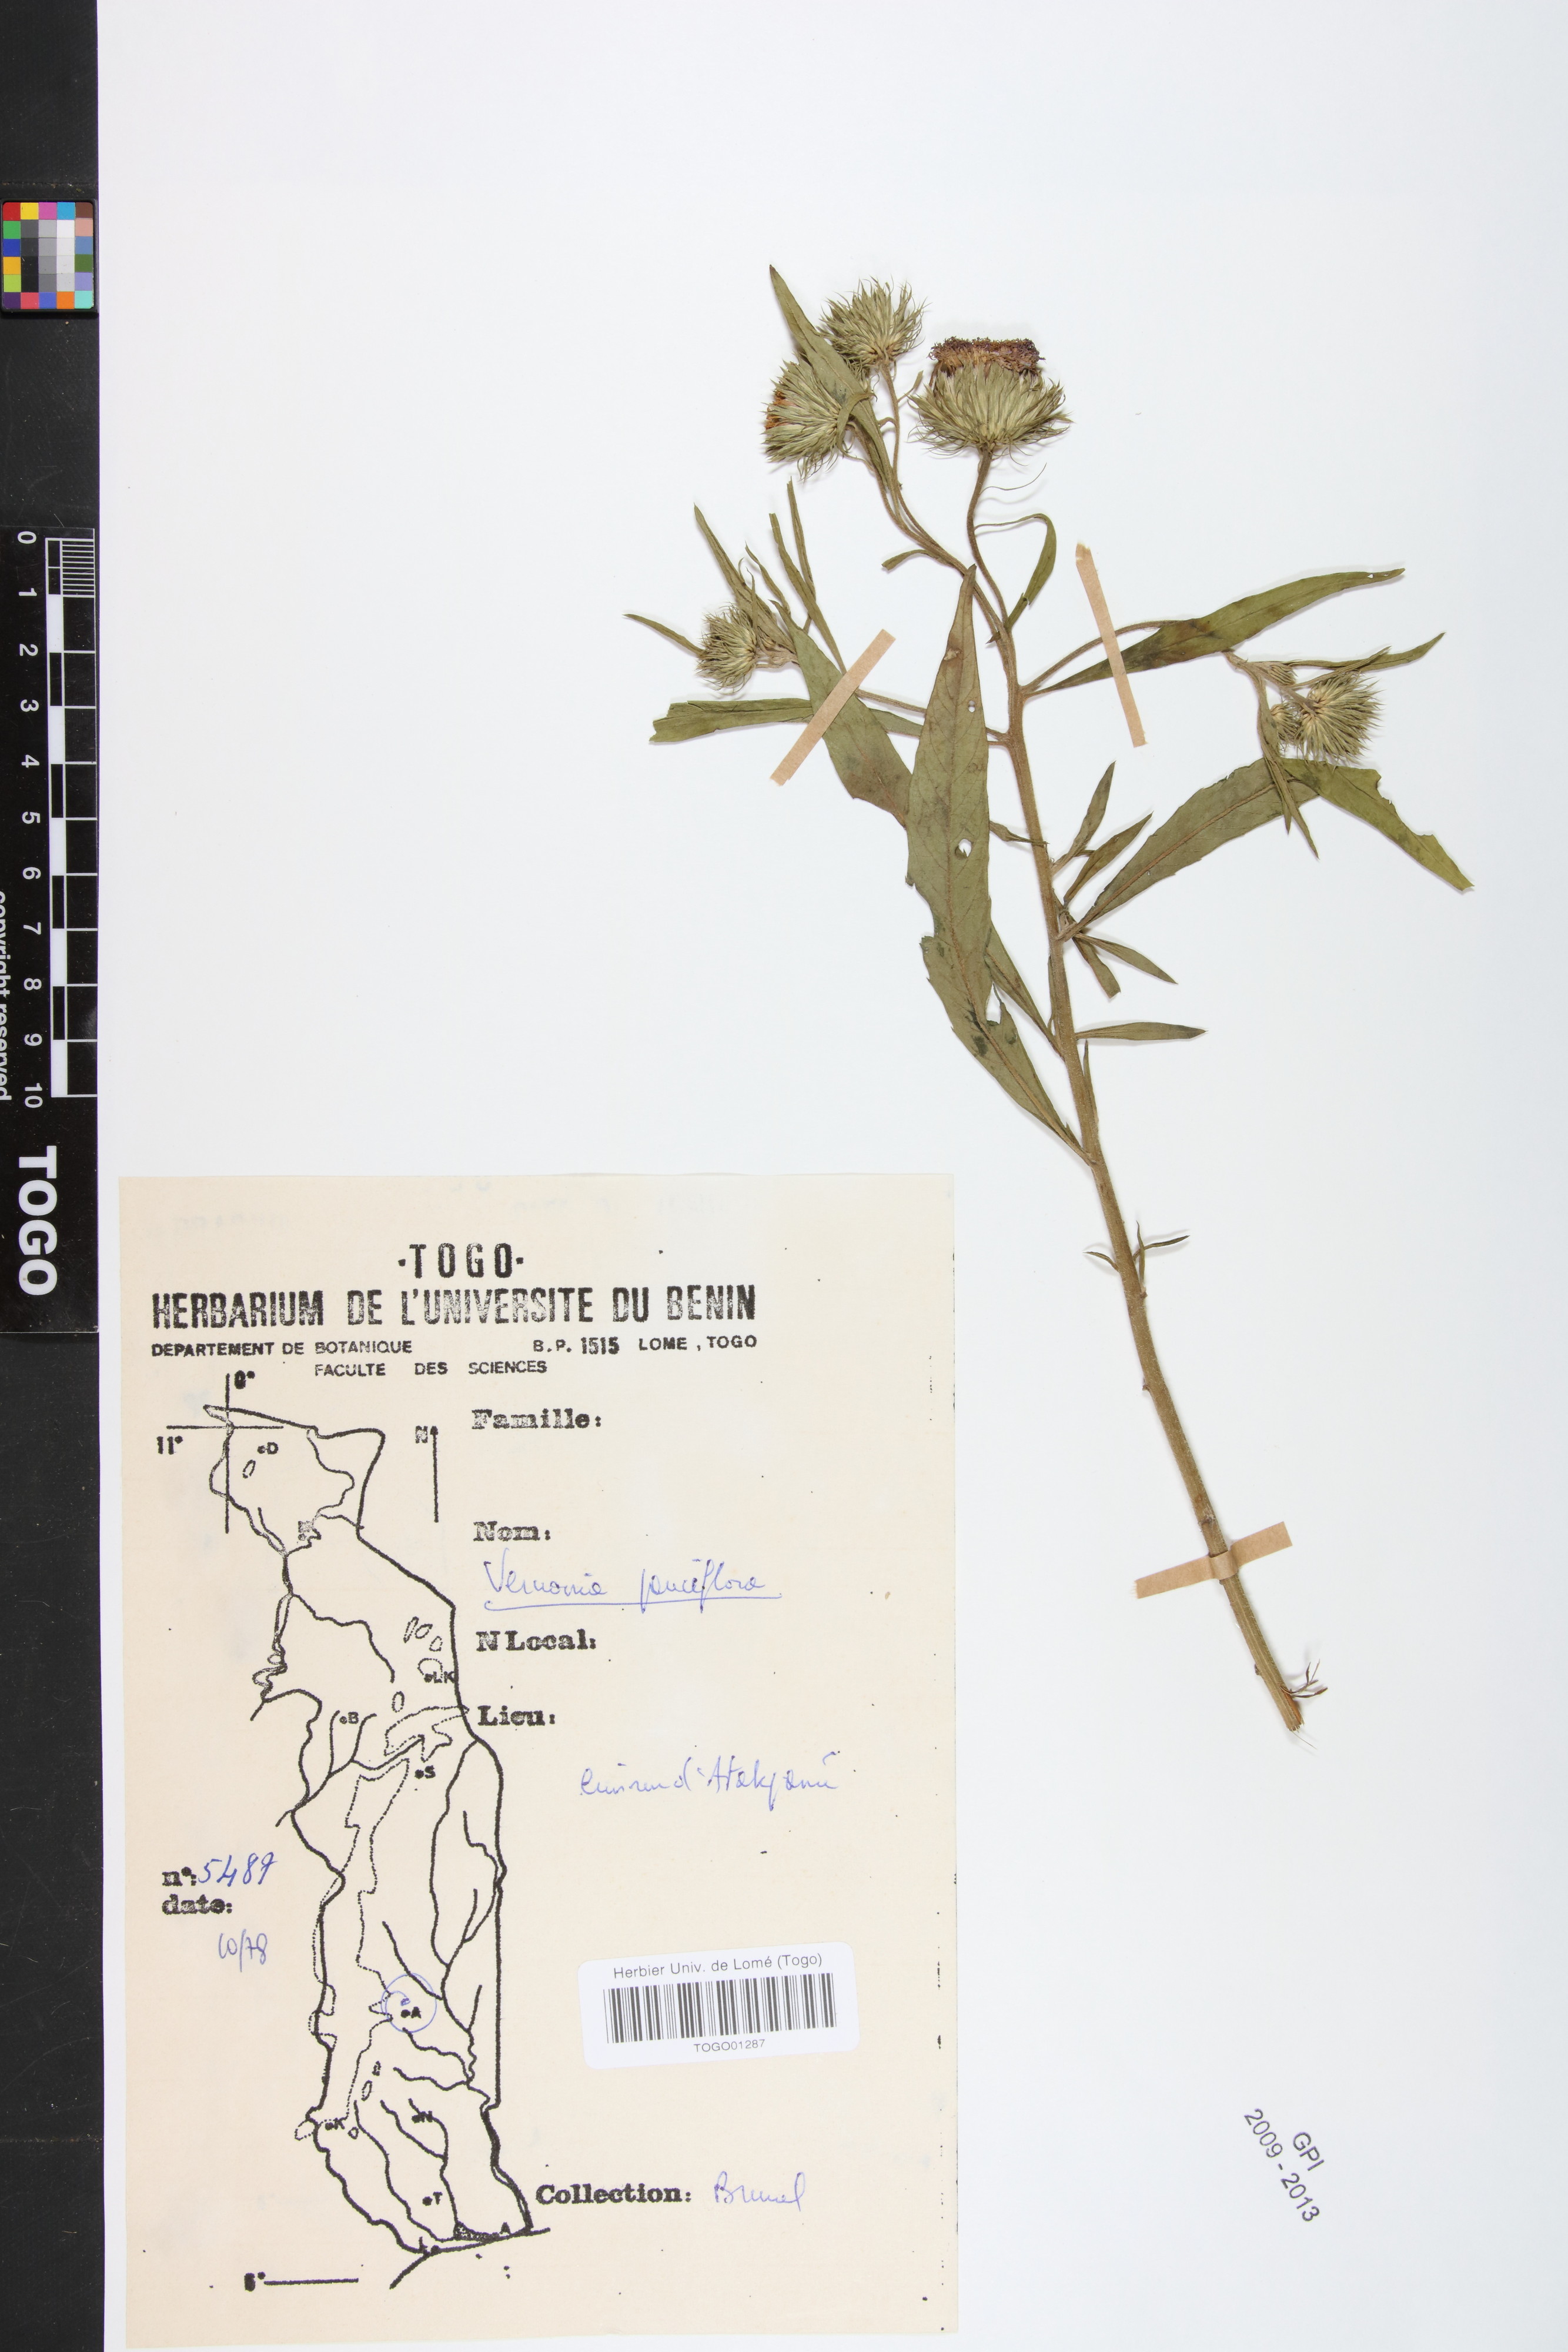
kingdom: Plantae
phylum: Tracheophyta
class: Magnoliopsida
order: Asterales
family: Asteraceae
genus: Vernonia
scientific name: Vernonia galamensis
